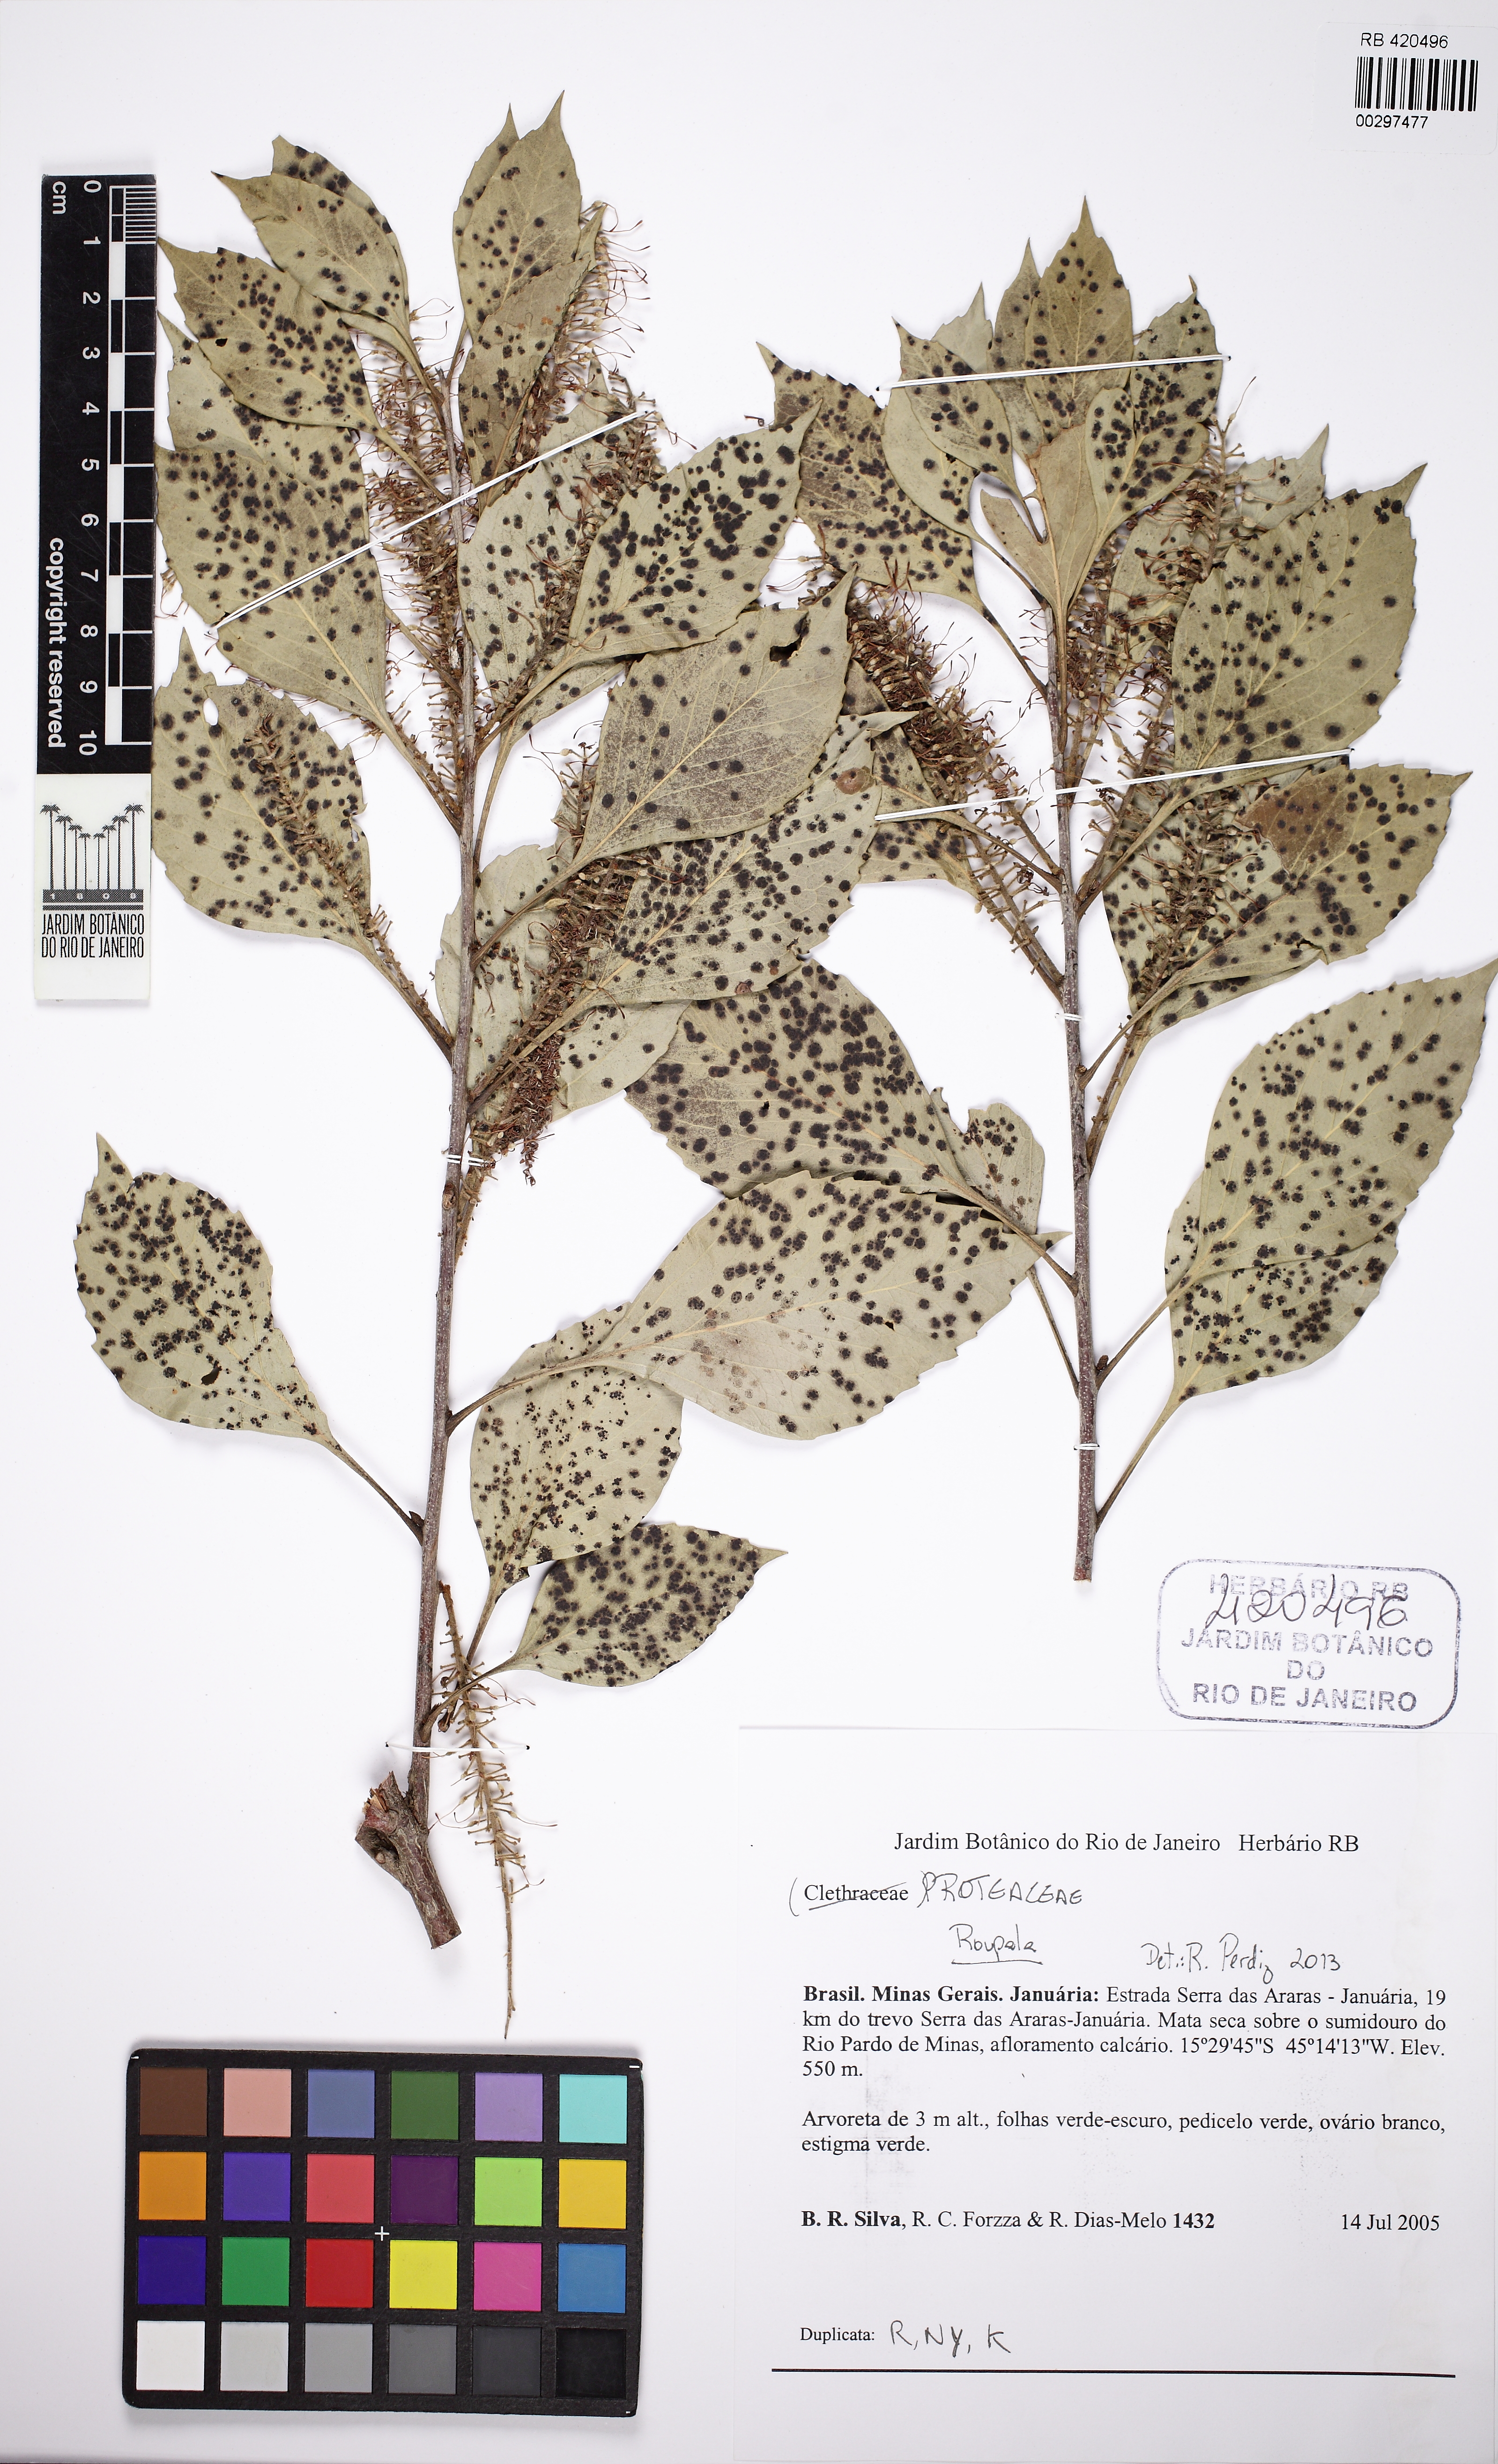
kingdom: Plantae
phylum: Tracheophyta
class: Magnoliopsida
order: Proteales
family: Proteaceae
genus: Roupala
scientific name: Roupala
